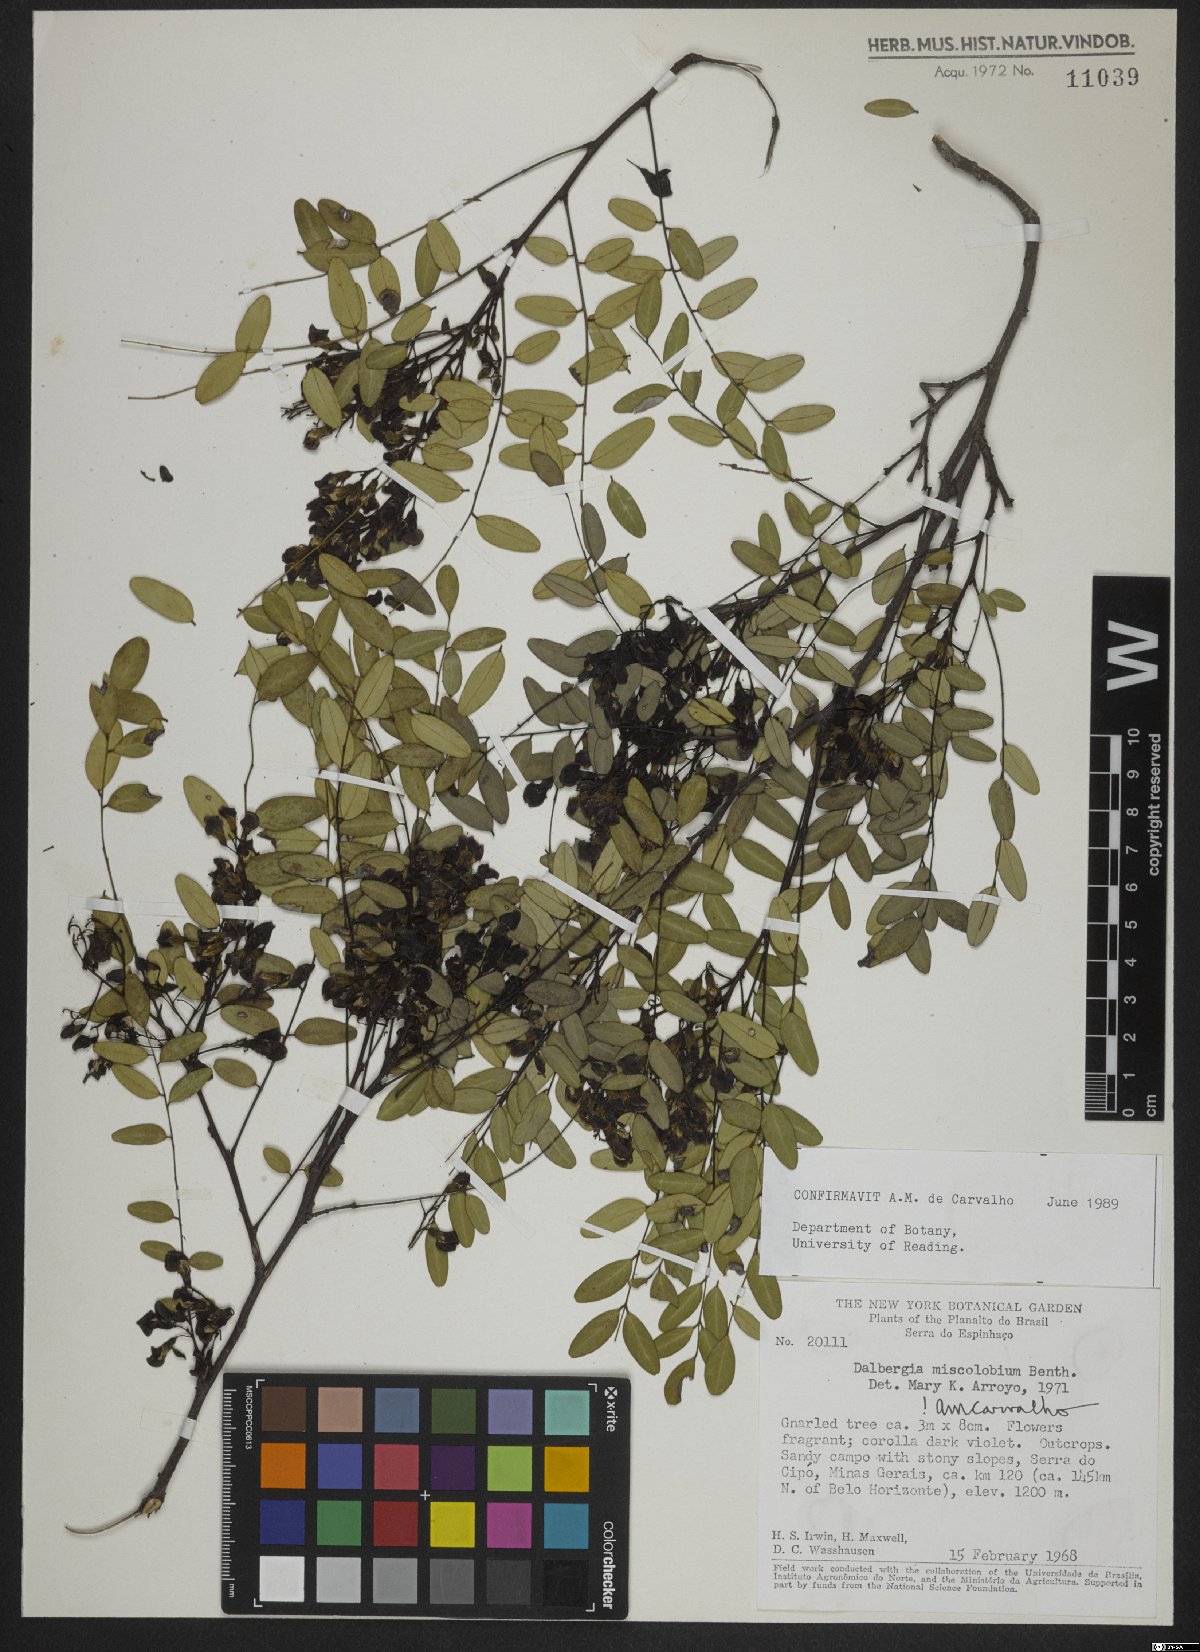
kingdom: Plantae
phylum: Tracheophyta
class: Magnoliopsida
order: Fabales
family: Fabaceae
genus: Dalbergia
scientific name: Dalbergia miscolobium
